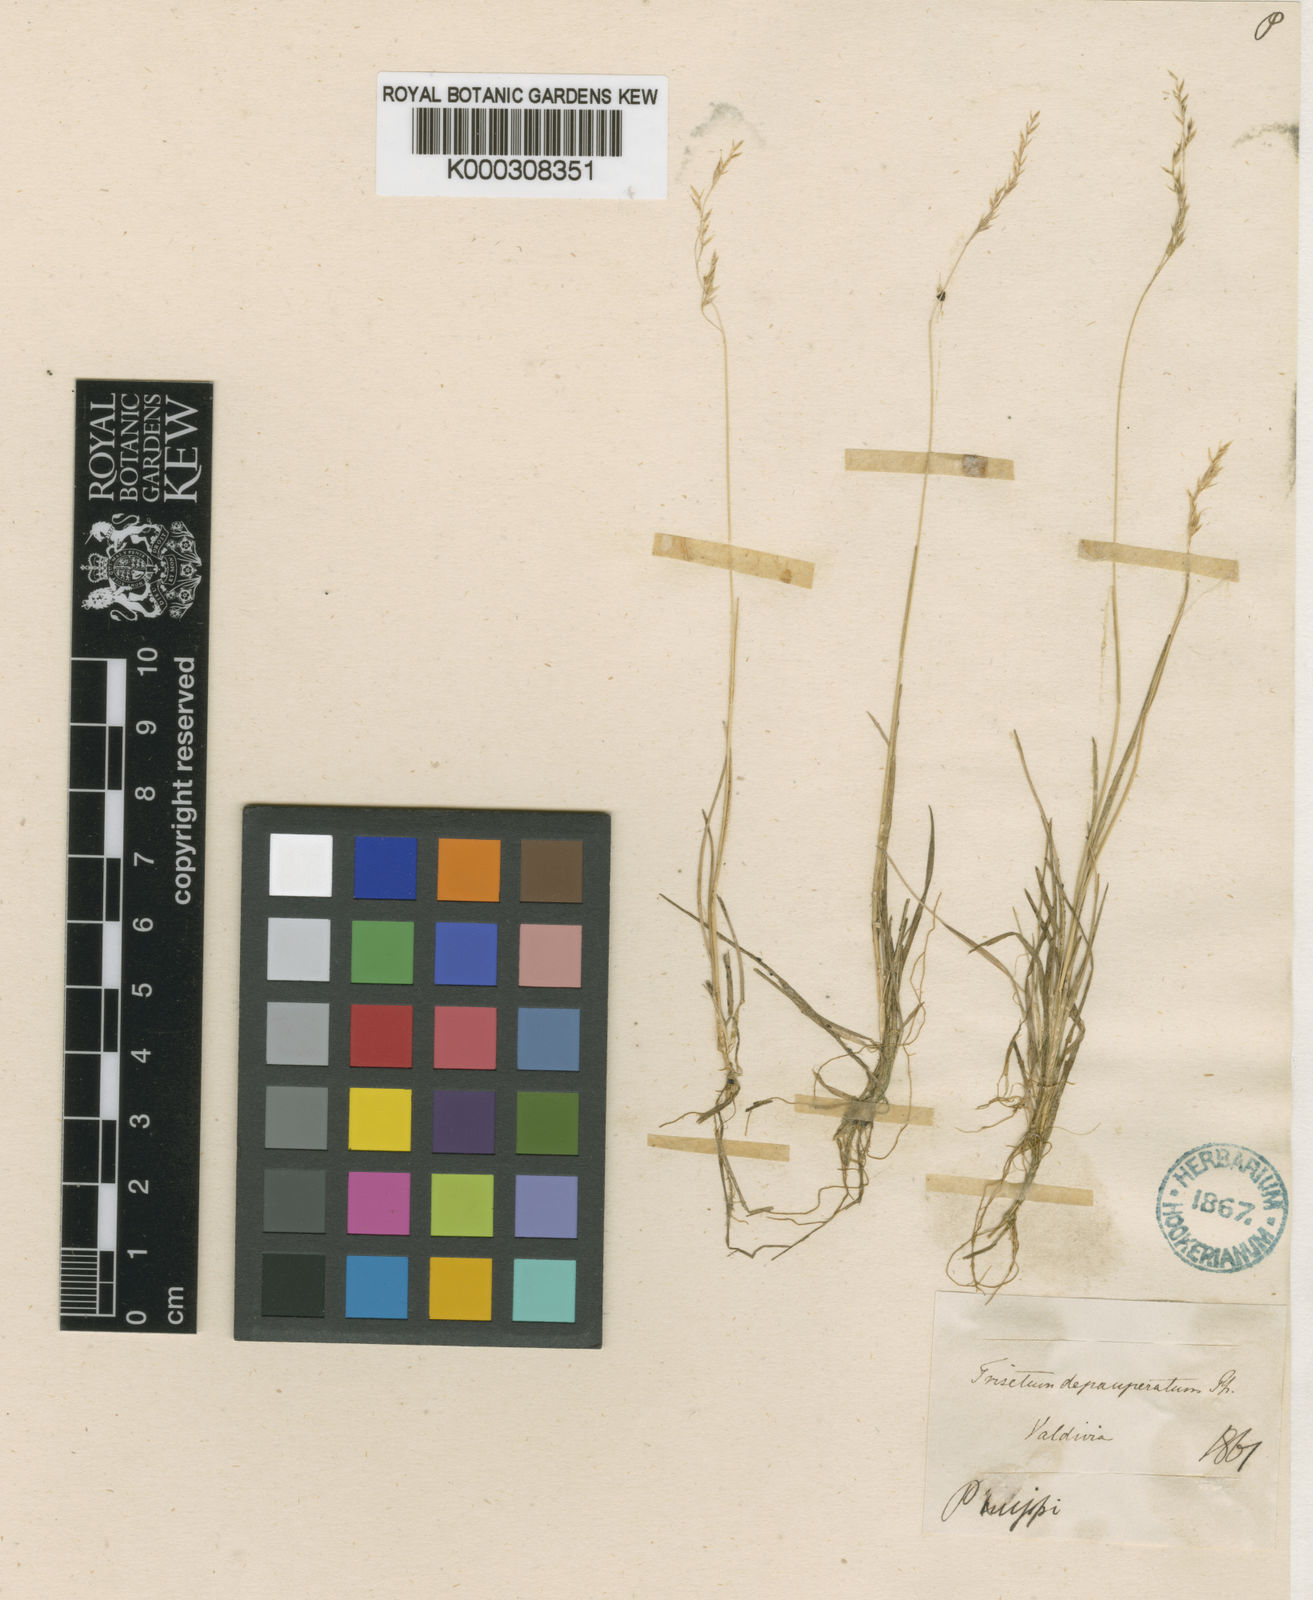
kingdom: Plantae
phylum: Tracheophyta
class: Liliopsida
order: Poales
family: Poaceae
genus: Cinnagrostis
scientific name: Cinnagrostis micrathera
